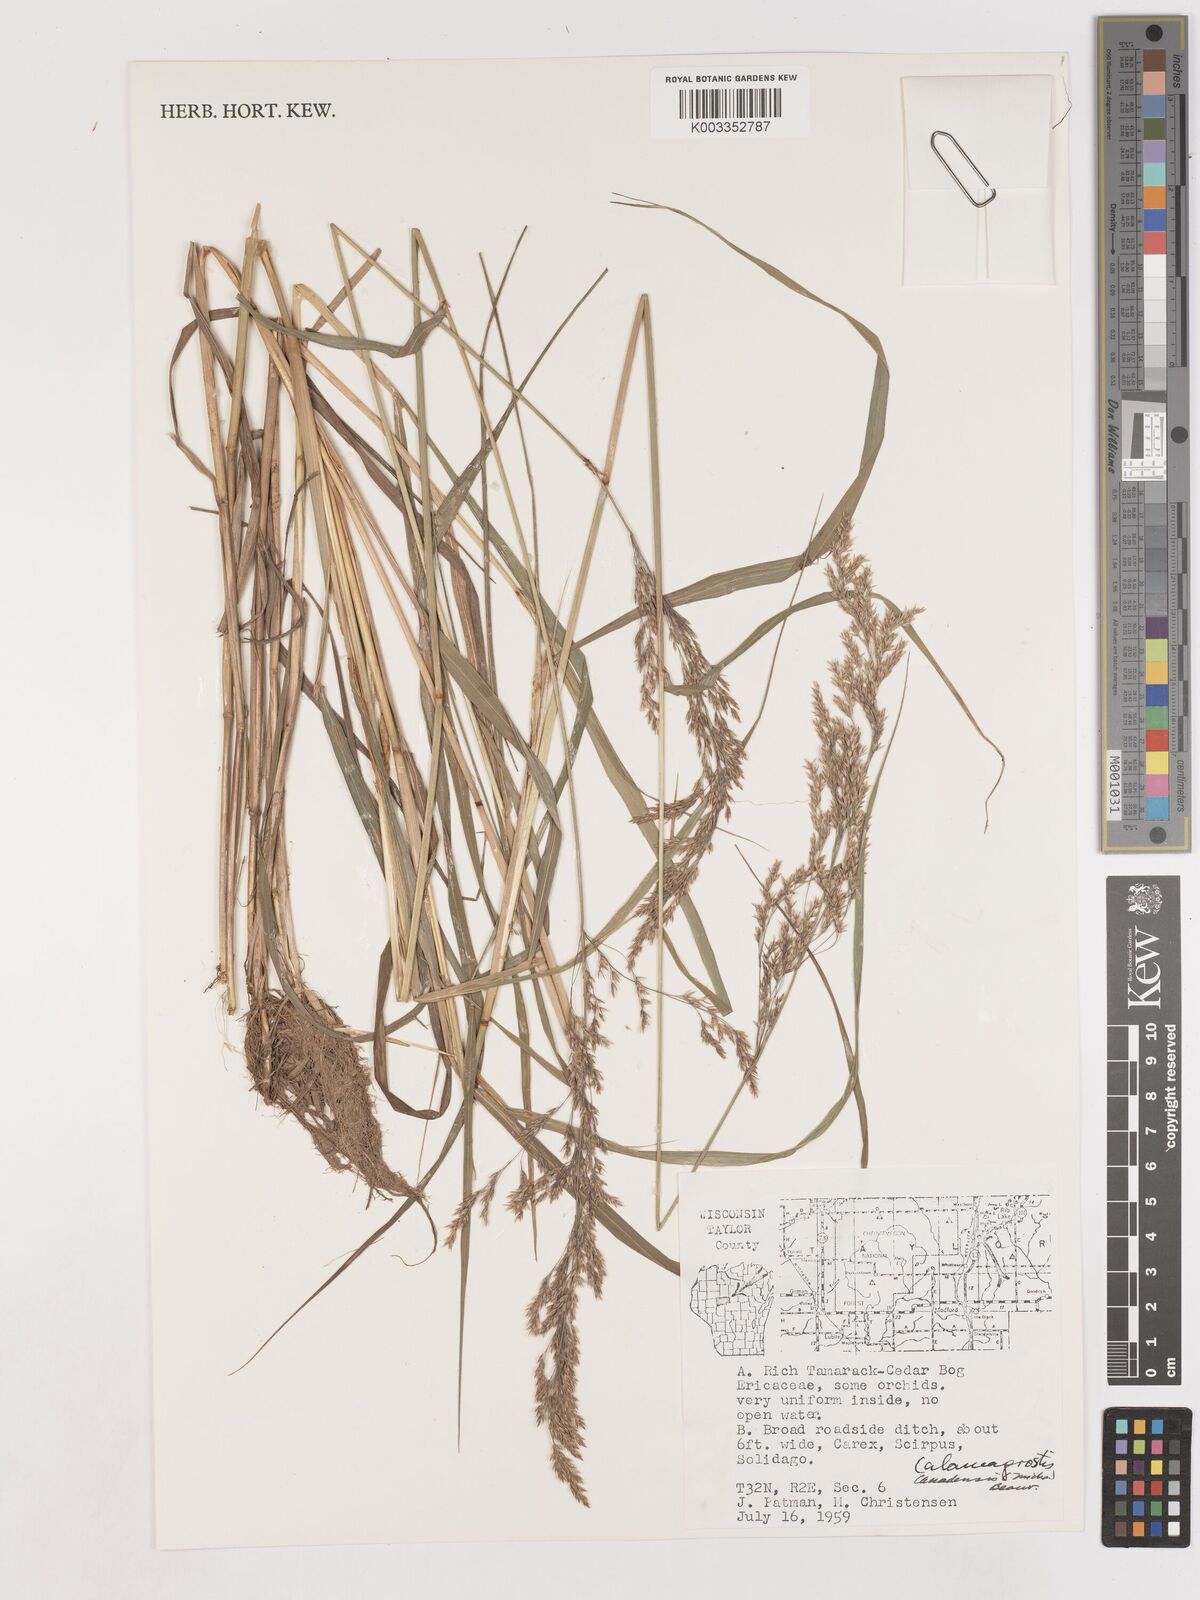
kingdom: Plantae
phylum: Tracheophyta
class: Liliopsida
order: Poales
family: Poaceae
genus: Calamagrostis
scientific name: Calamagrostis canadensis
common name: Canada bluejoint
